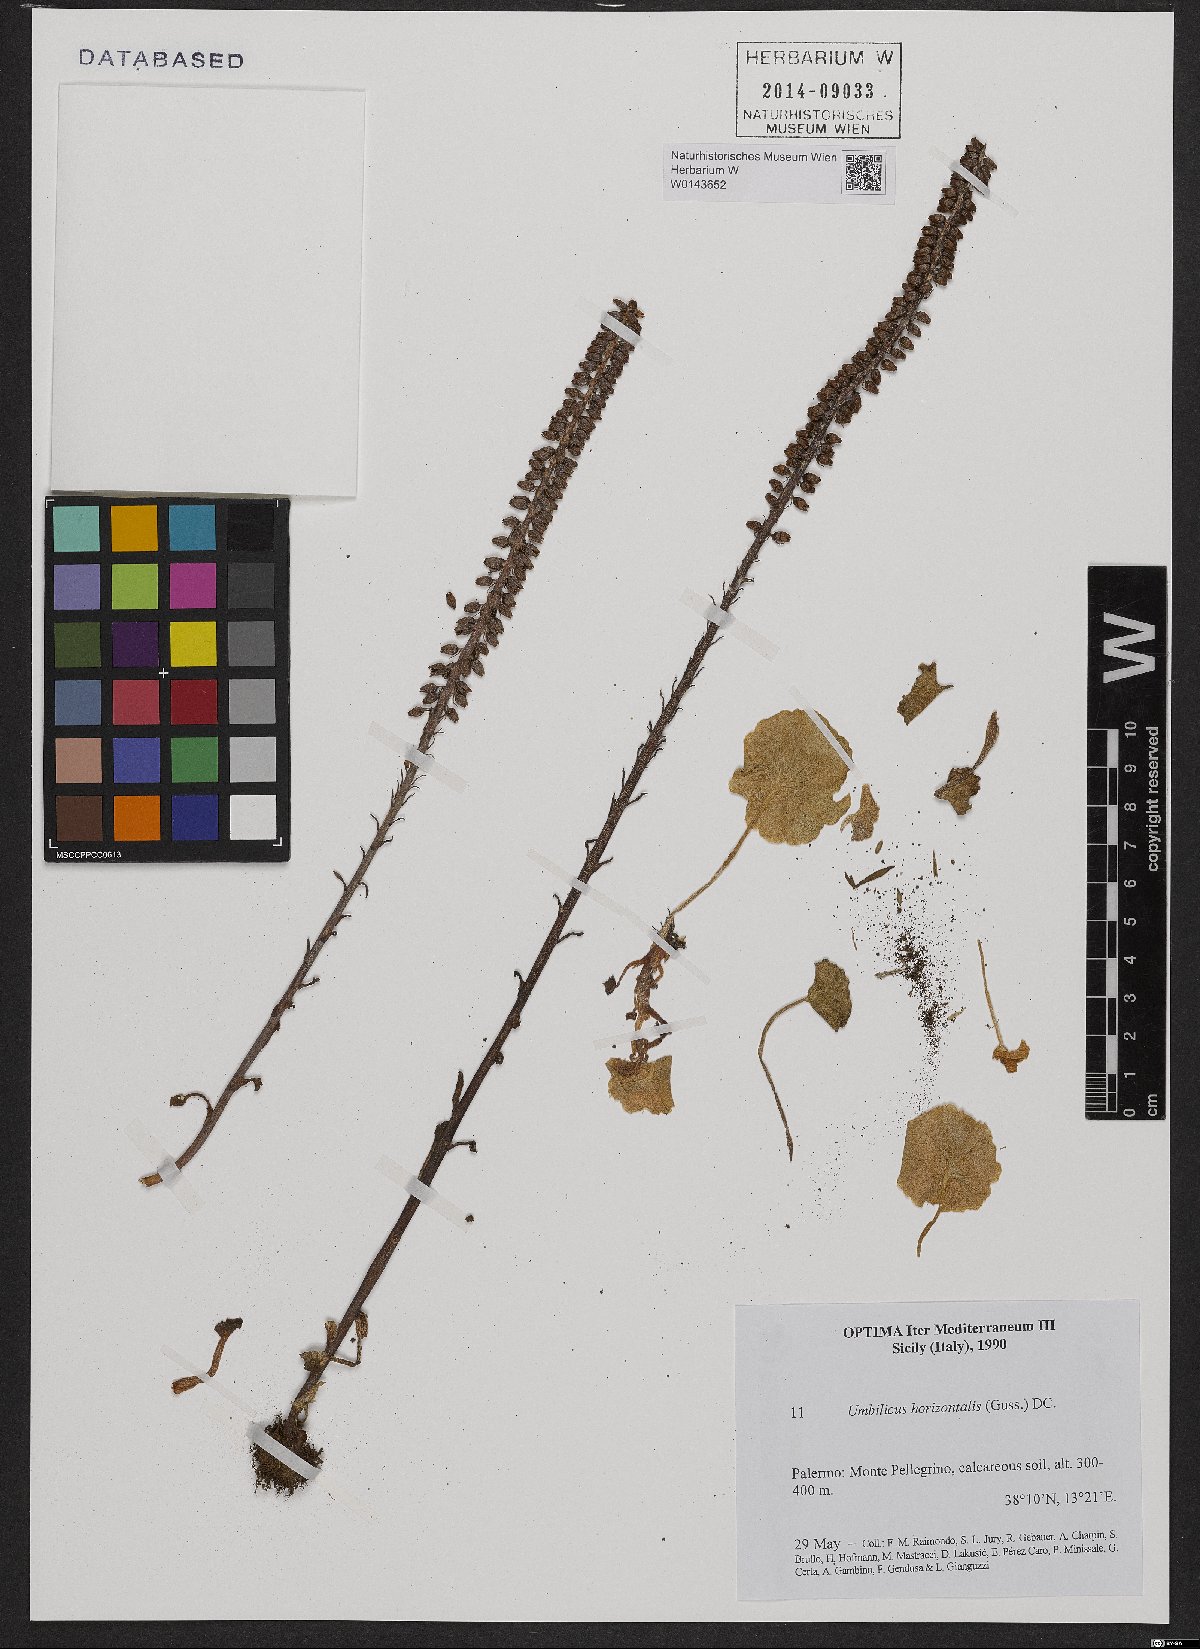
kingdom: Plantae
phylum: Tracheophyta
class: Magnoliopsida
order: Saxifragales
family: Crassulaceae
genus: Umbilicus
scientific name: Umbilicus horizontalis
